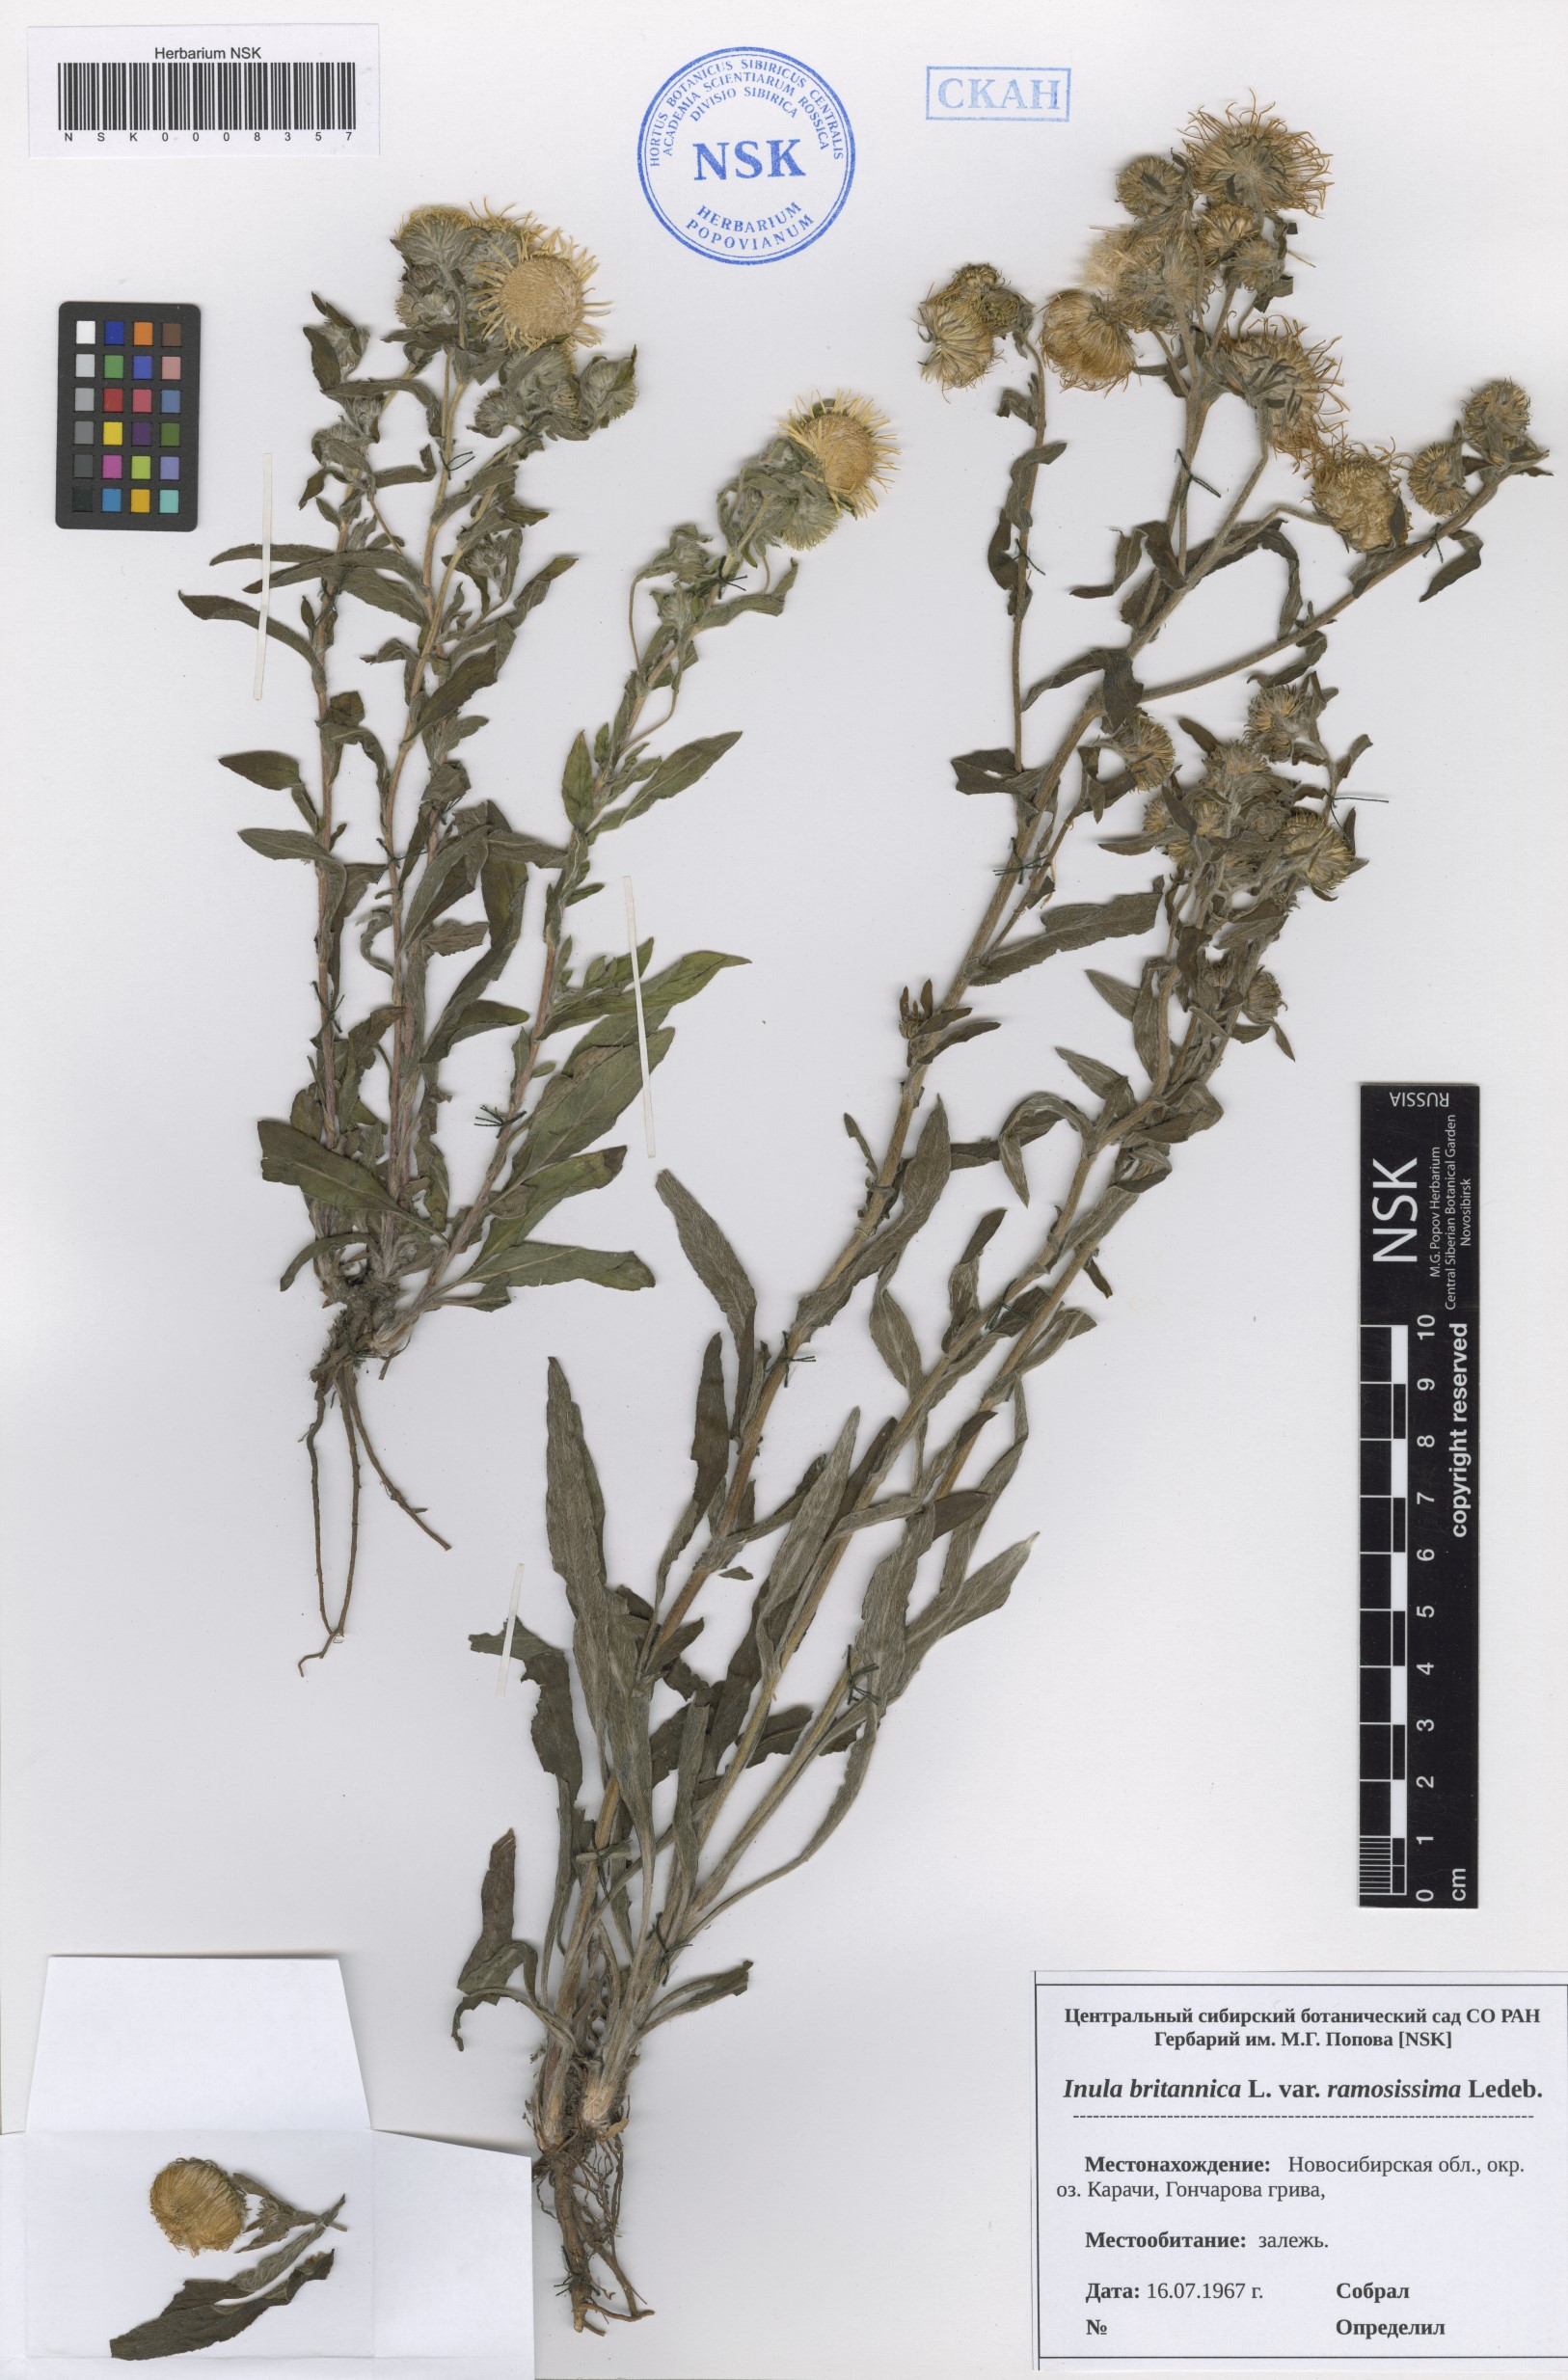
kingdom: Plantae
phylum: Tracheophyta
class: Magnoliopsida
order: Asterales
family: Asteraceae
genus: Pentanema
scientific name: Pentanema britannicum
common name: British elecampane
